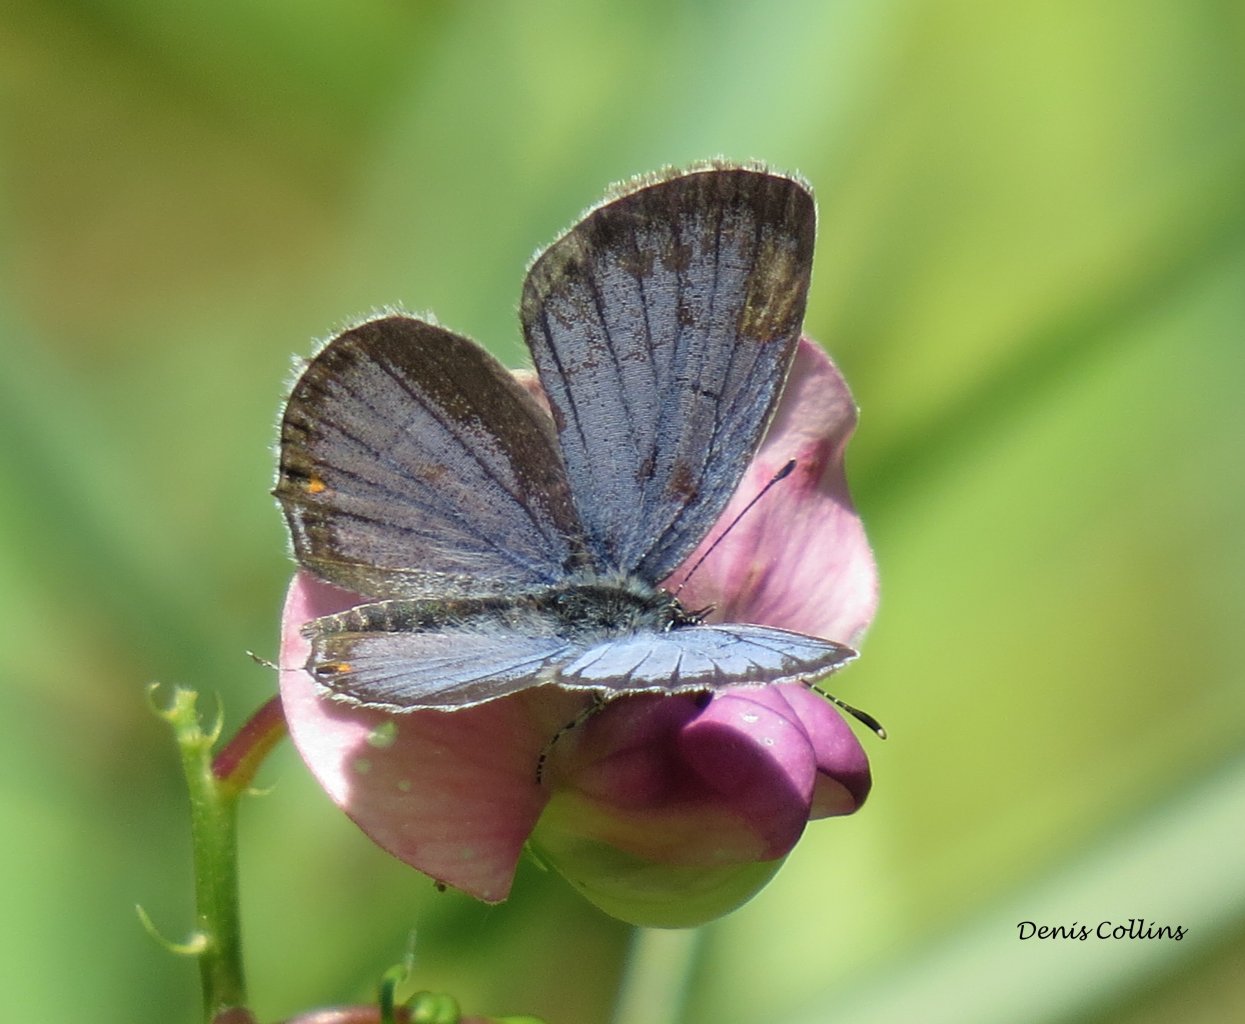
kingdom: Animalia
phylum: Arthropoda
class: Insecta
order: Lepidoptera
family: Lycaenidae
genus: Elkalyce
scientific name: Elkalyce comyntas
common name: Eastern Tailed-Blue
